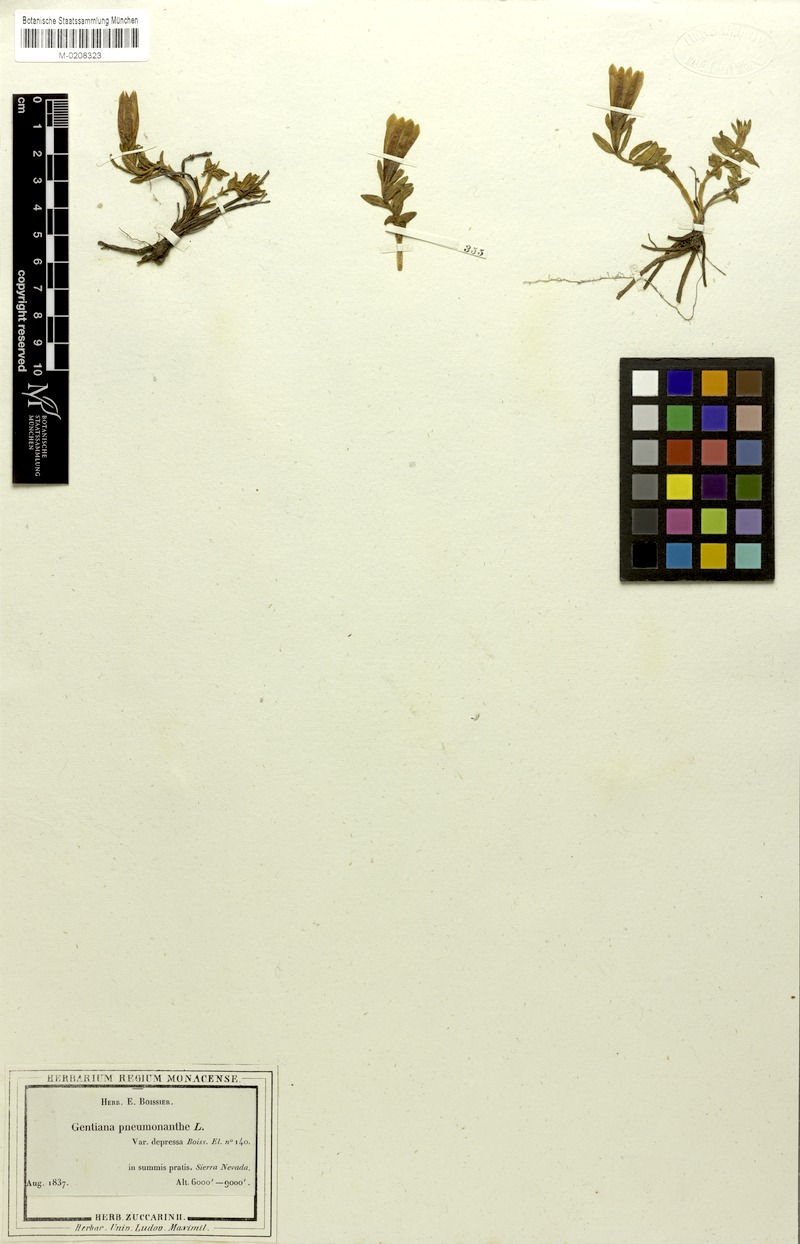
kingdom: Plantae
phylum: Tracheophyta
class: Magnoliopsida
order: Gentianales
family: Gentianaceae
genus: Gentiana
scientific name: Gentiana pneumonanthe
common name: Marsh gentian
